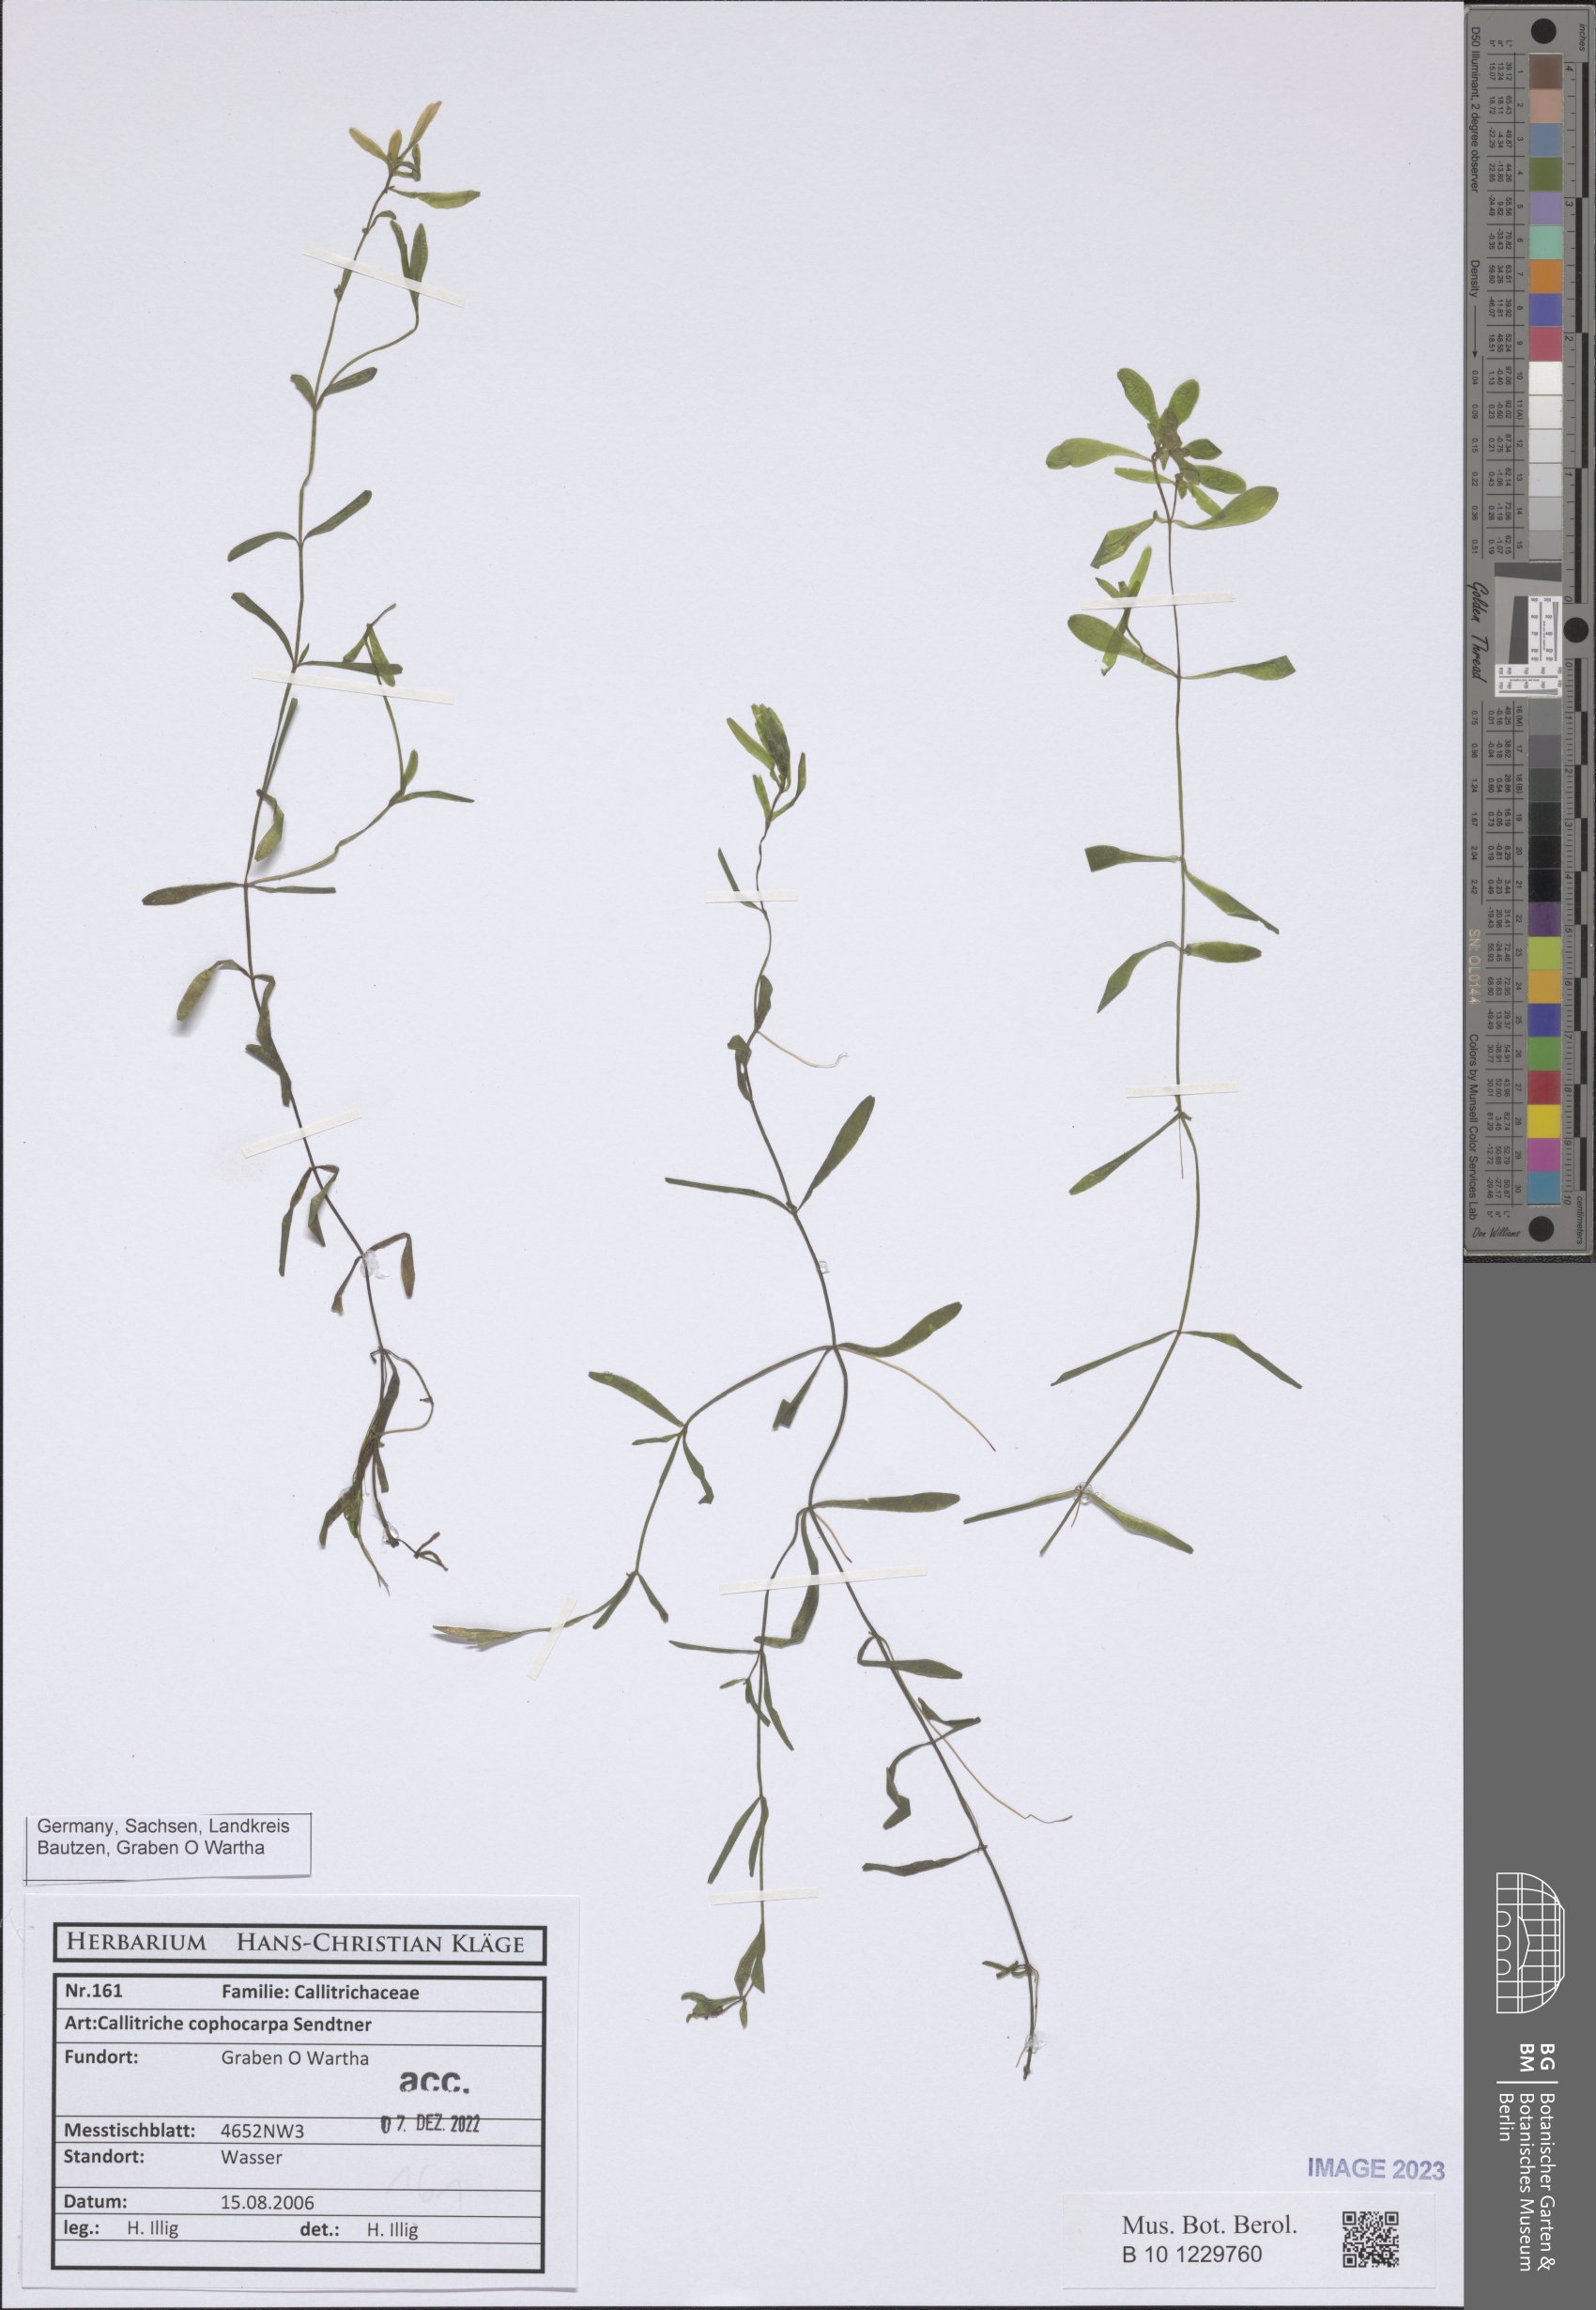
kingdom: Plantae
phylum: Tracheophyta
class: Magnoliopsida
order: Lamiales
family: Plantaginaceae
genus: Callitriche
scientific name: Callitriche cophocarpa
